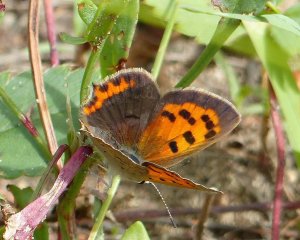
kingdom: Animalia
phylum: Arthropoda
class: Insecta
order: Lepidoptera
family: Lycaenidae
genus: Lycaena
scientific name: Lycaena phlaeas
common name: American Copper
